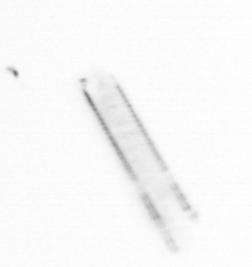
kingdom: Chromista
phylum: Ochrophyta
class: Bacillariophyceae
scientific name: Bacillariophyceae
